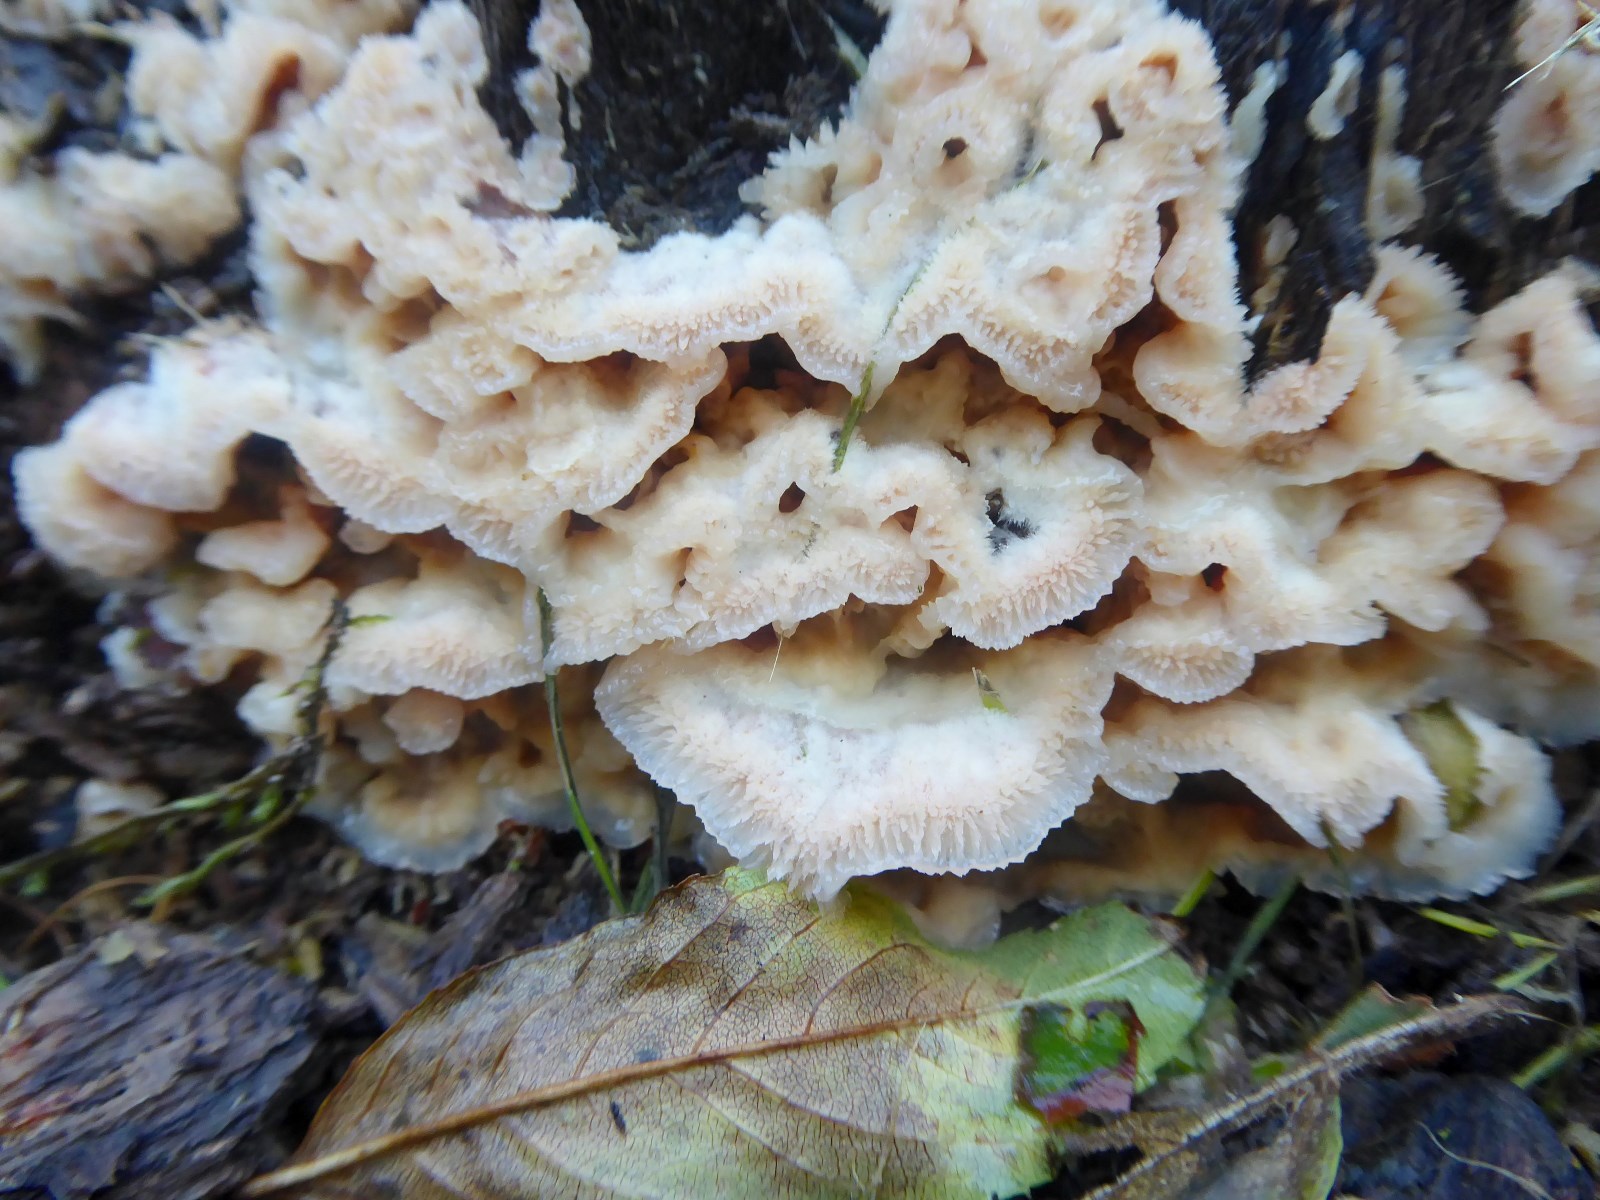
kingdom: Fungi
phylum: Basidiomycota
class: Agaricomycetes
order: Polyporales
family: Meruliaceae
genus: Phlebia
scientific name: Phlebia tremellosa
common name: bævrende åresvamp
